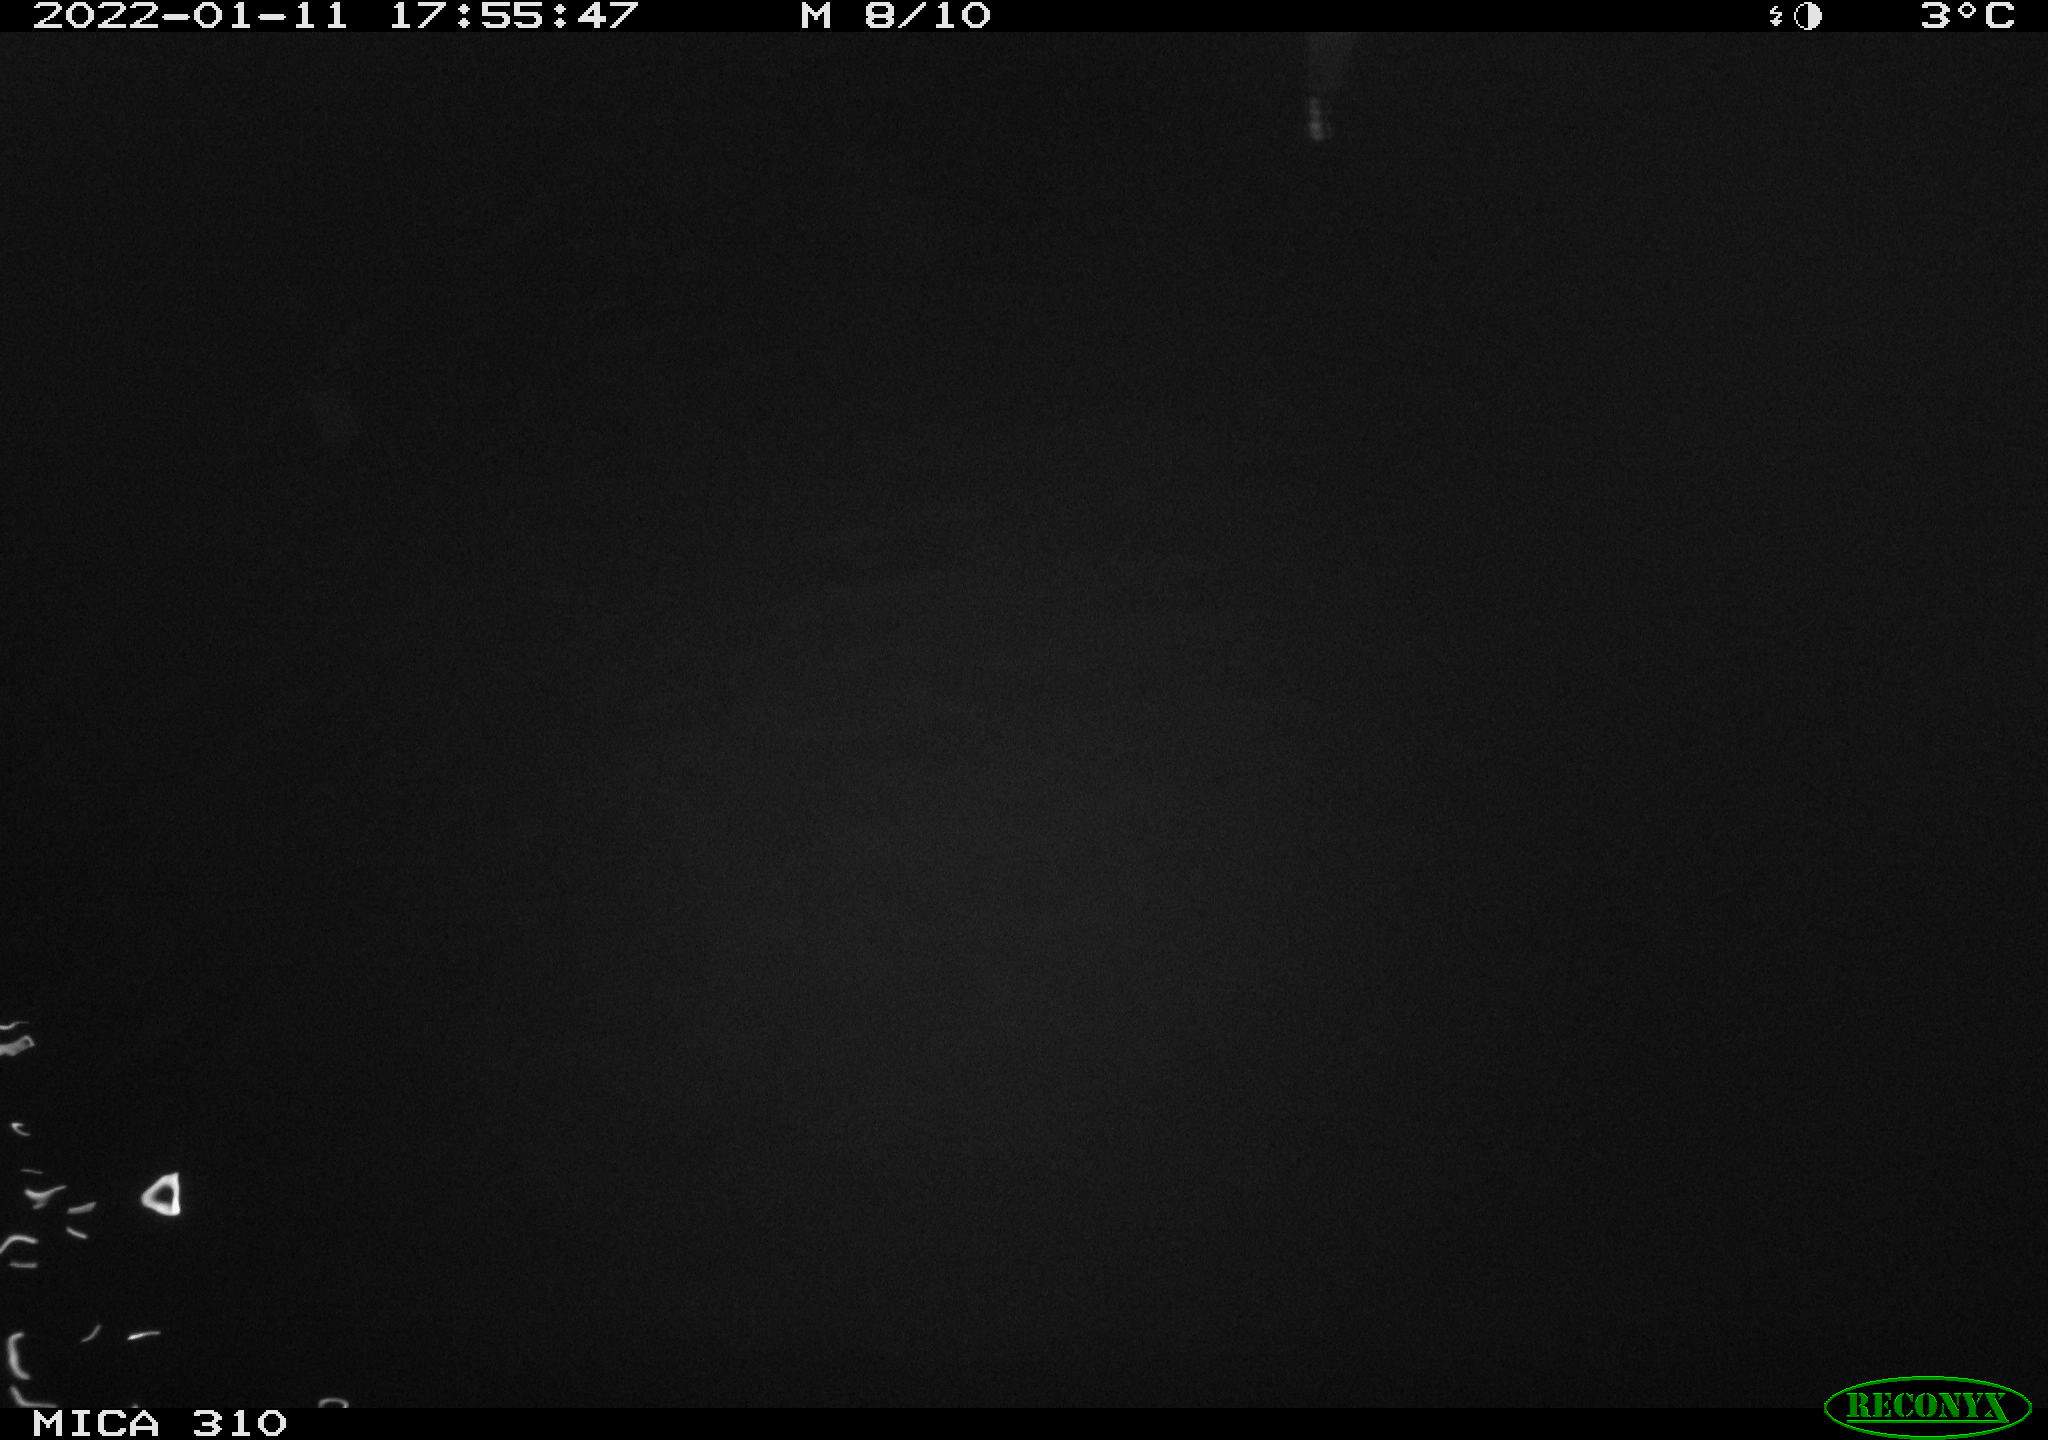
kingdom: Animalia
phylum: Chordata
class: Aves
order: Anseriformes
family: Anatidae
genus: Anas
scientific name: Anas
